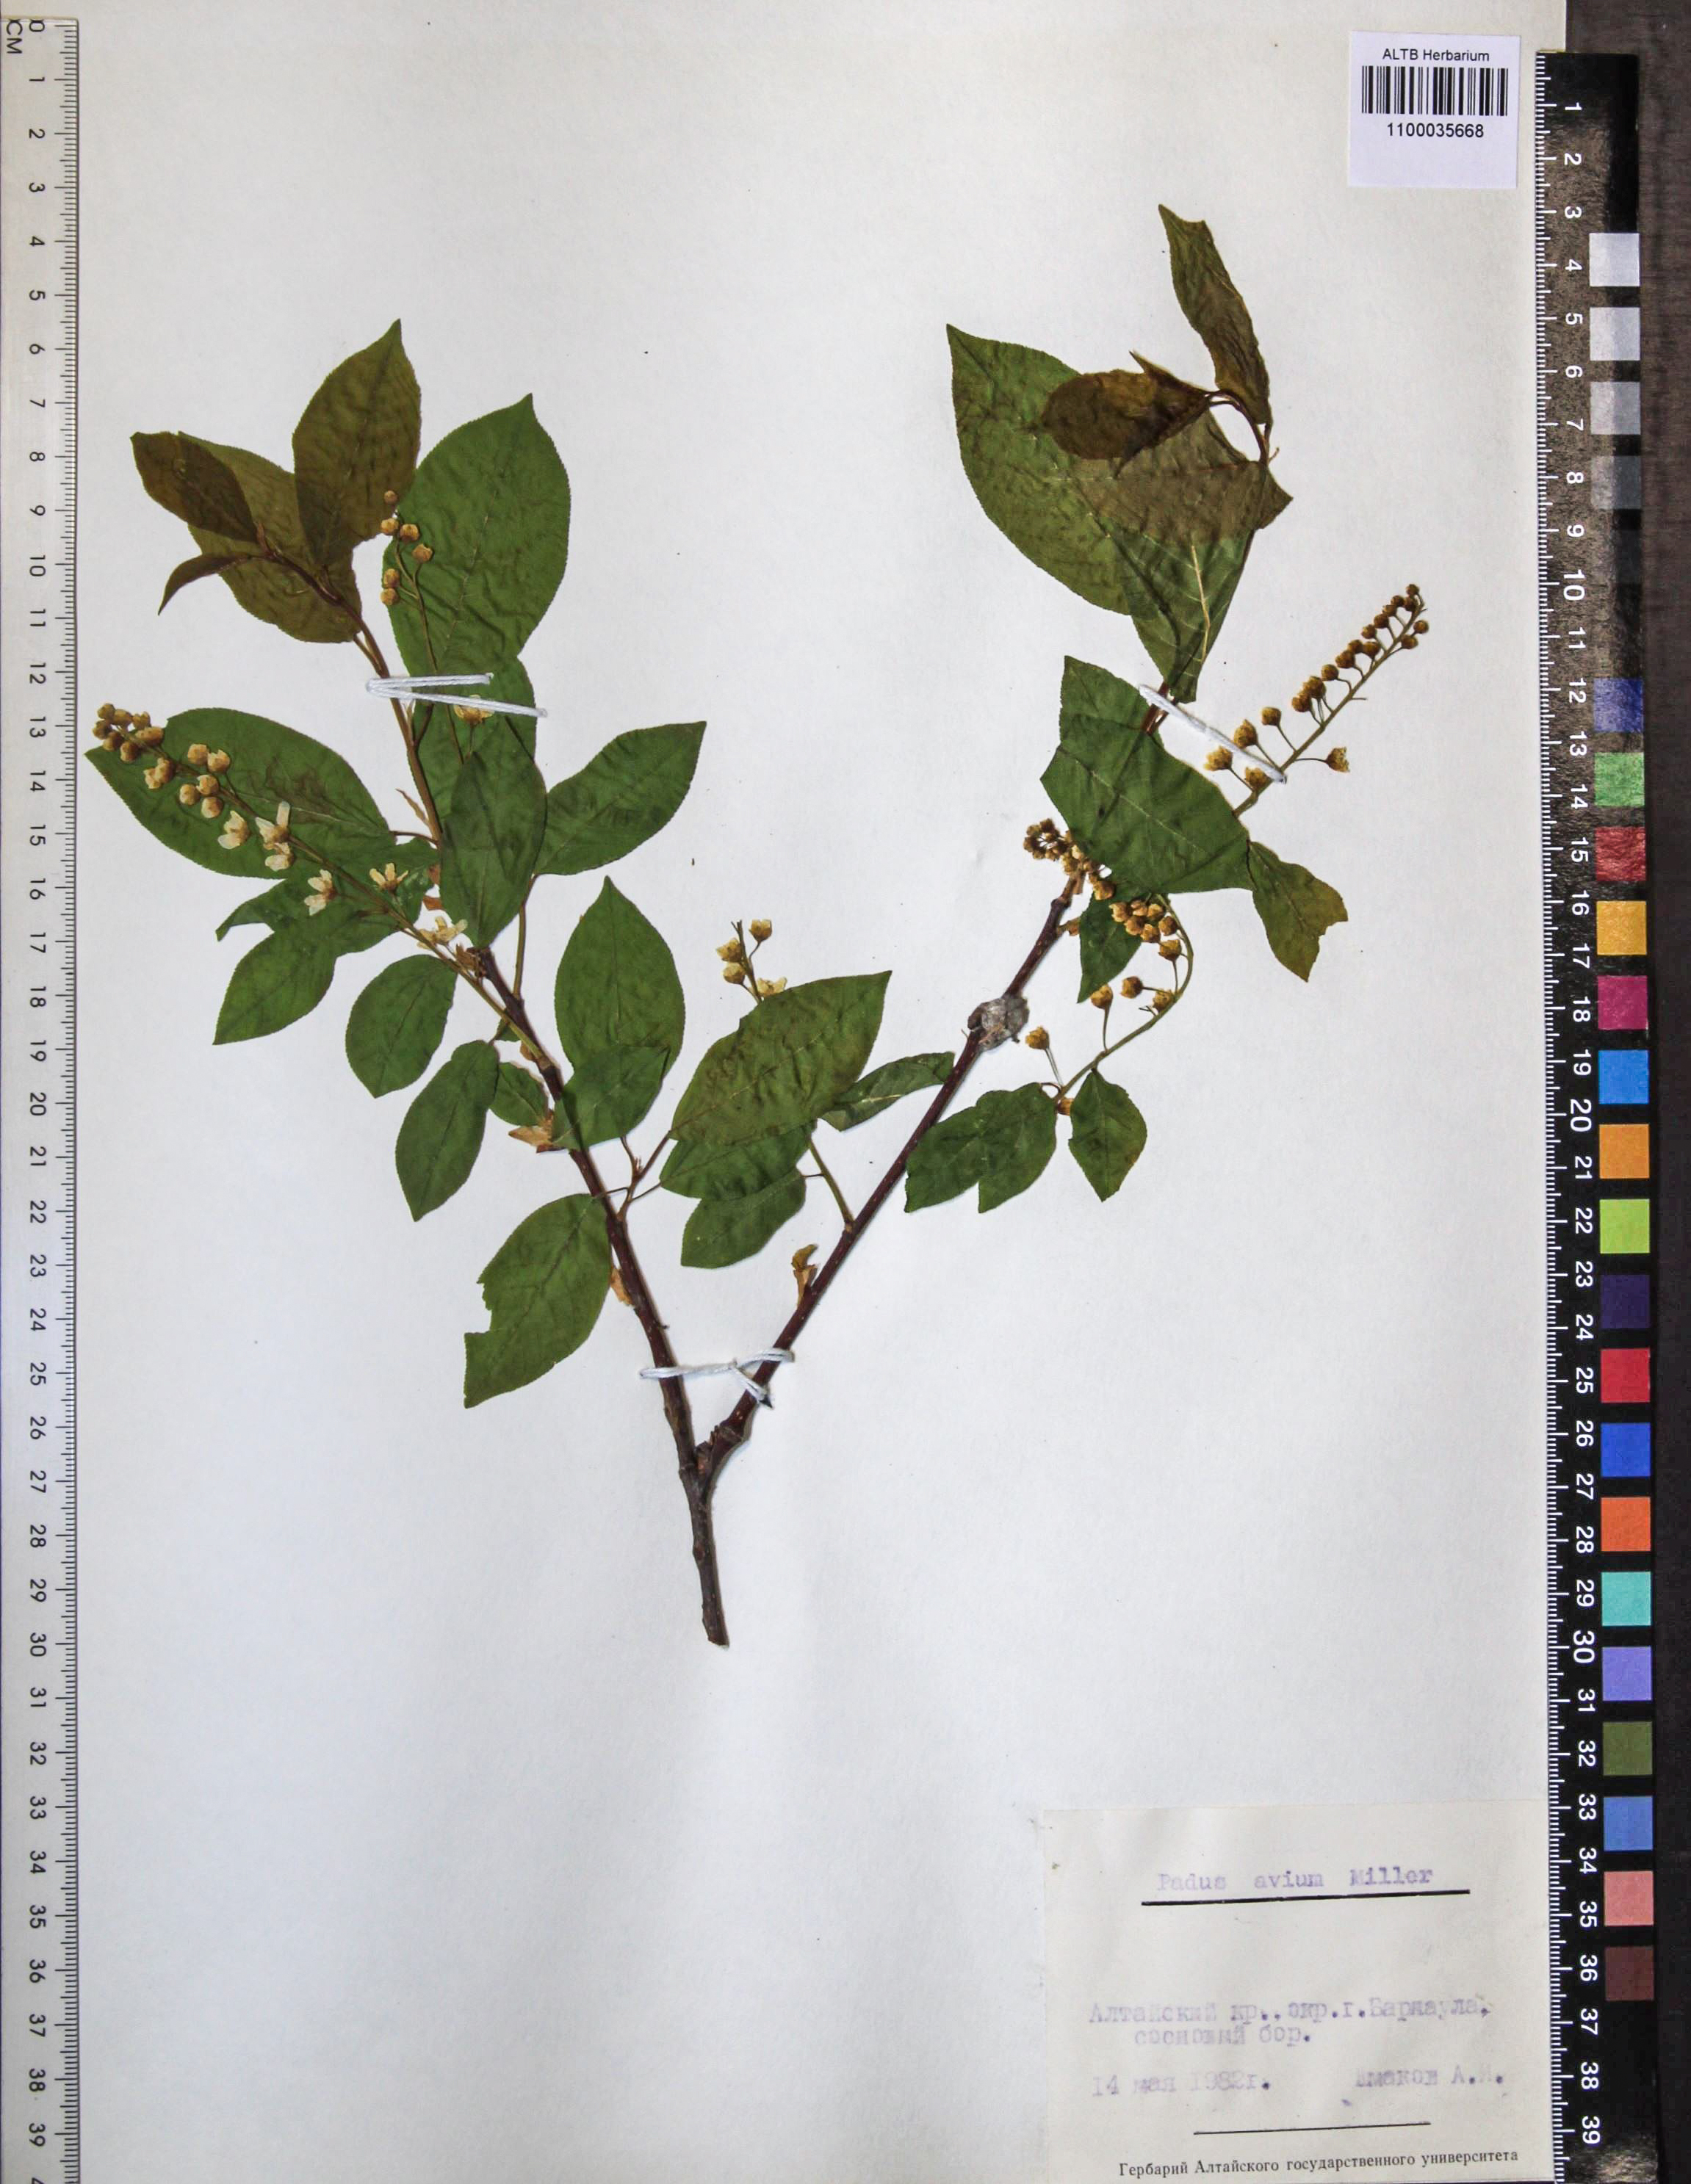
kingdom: Plantae
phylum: Tracheophyta
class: Magnoliopsida
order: Rosales
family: Rosaceae
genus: Prunus
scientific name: Prunus padus
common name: Bird cherry
